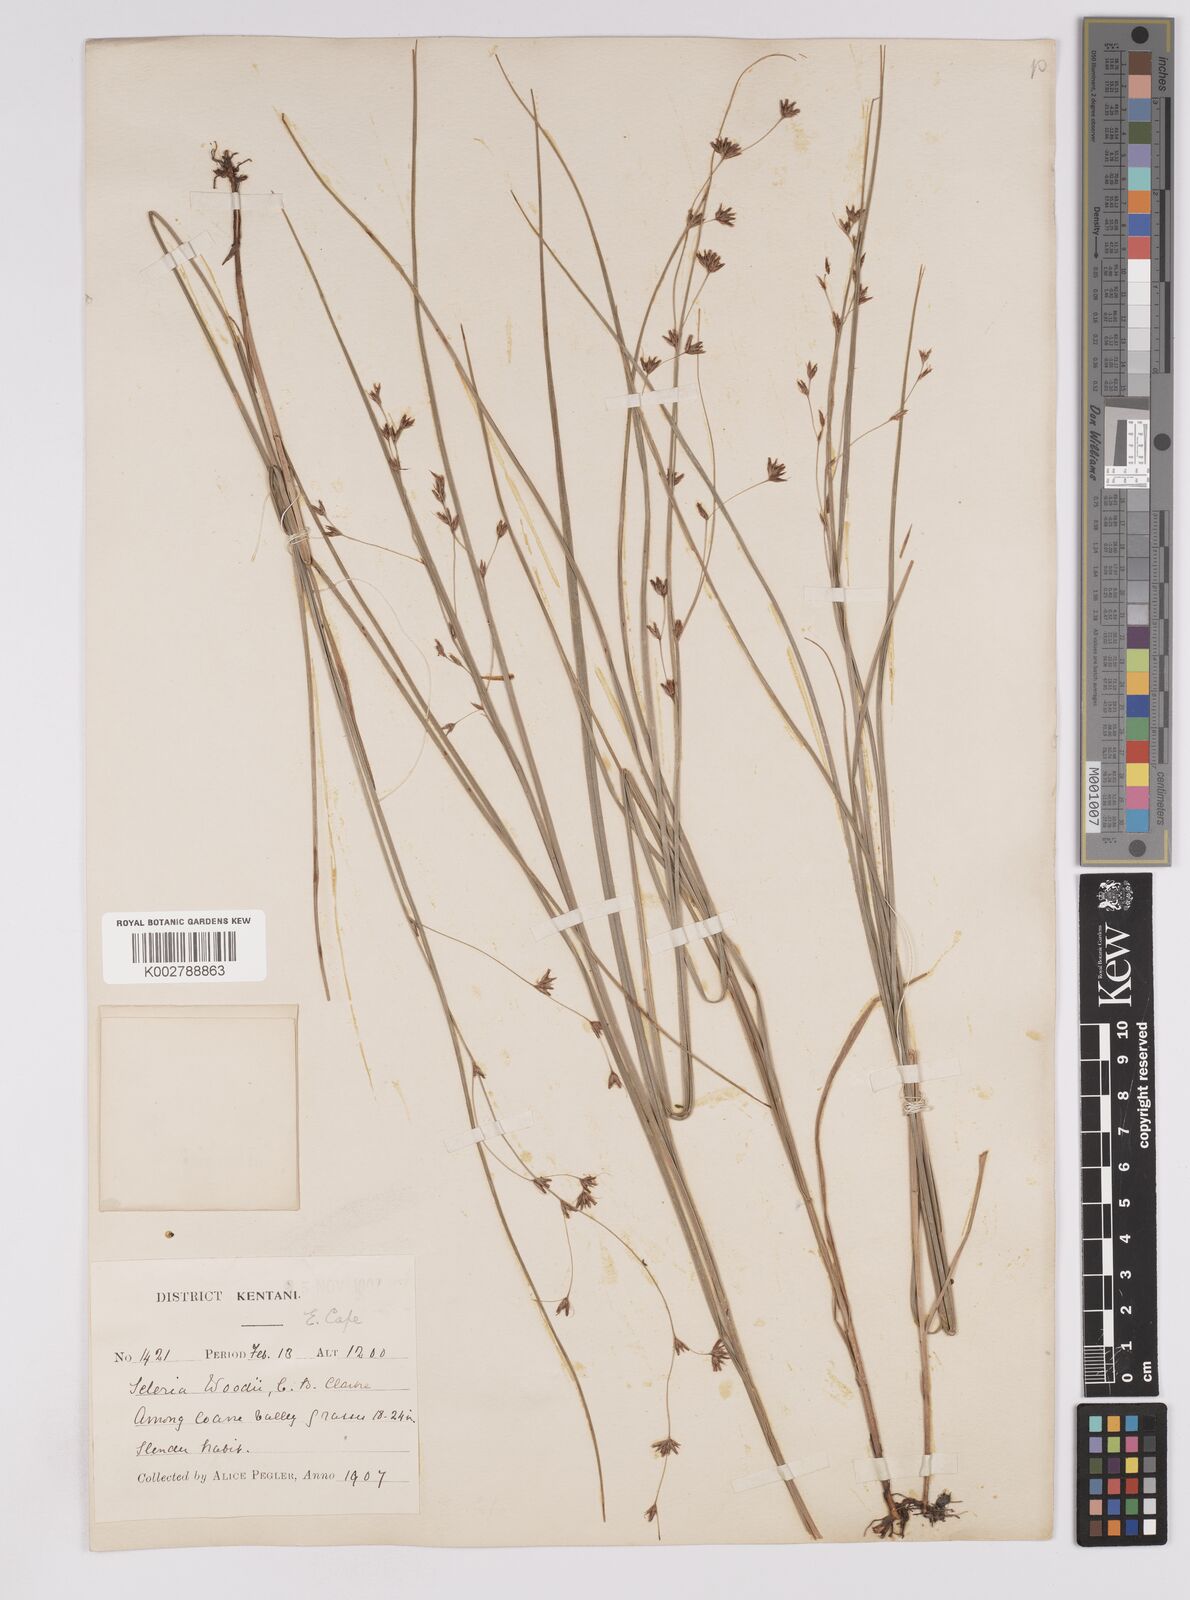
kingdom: Plantae
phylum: Tracheophyta
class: Liliopsida
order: Poales
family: Cyperaceae
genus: Scleria
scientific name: Scleria woodii
